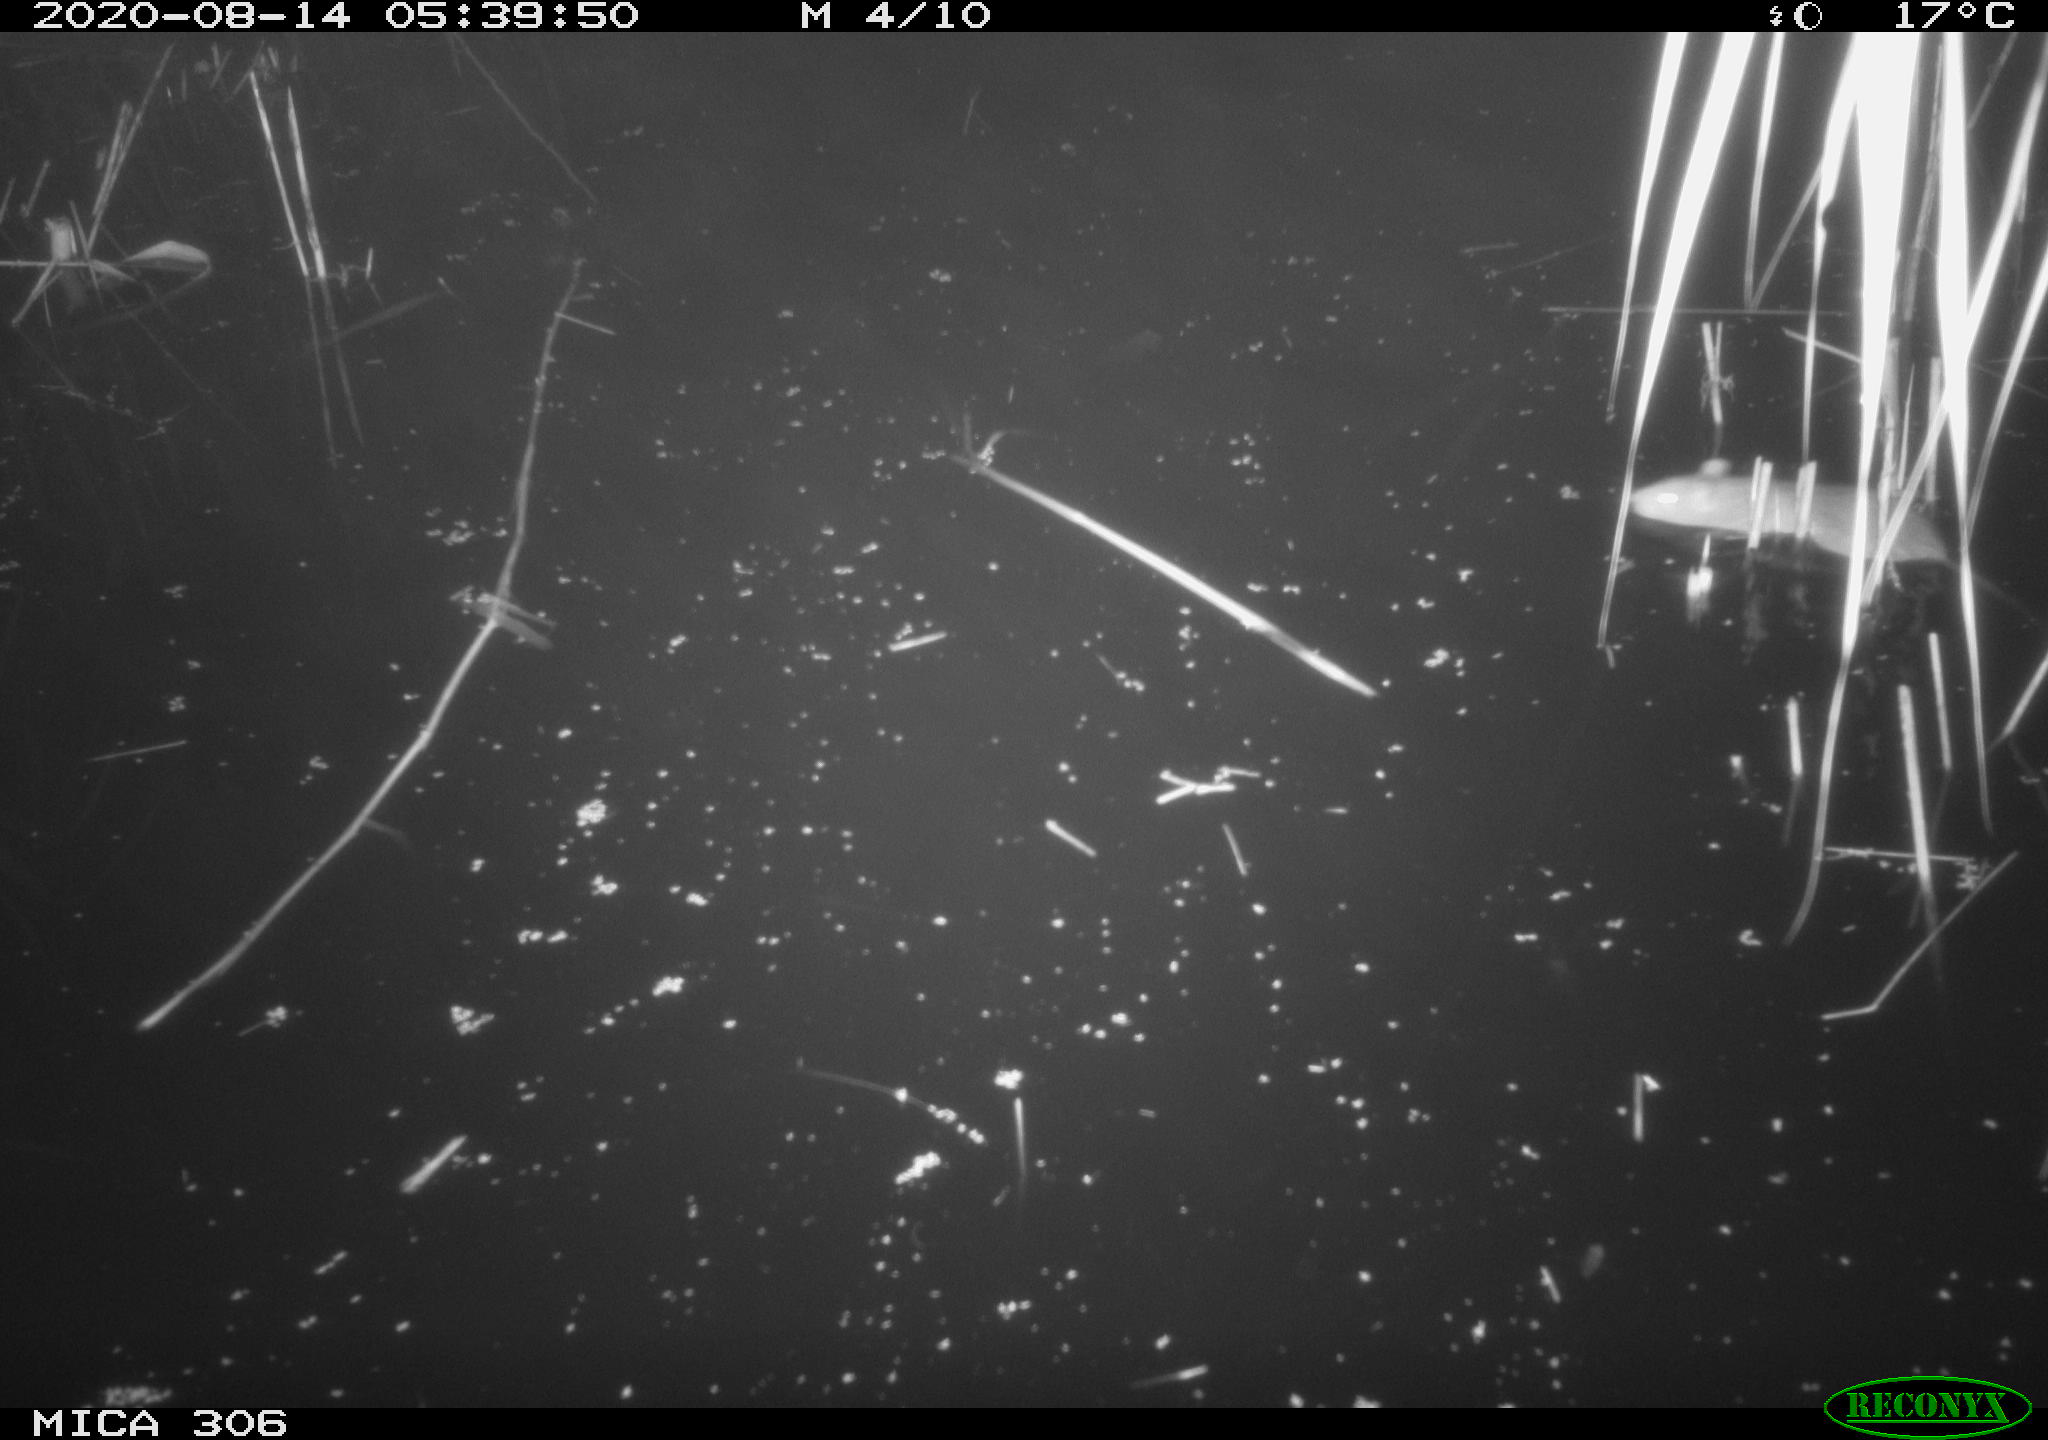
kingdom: Animalia
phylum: Chordata
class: Mammalia
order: Rodentia
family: Muridae
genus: Rattus
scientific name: Rattus norvegicus
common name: Brown rat
